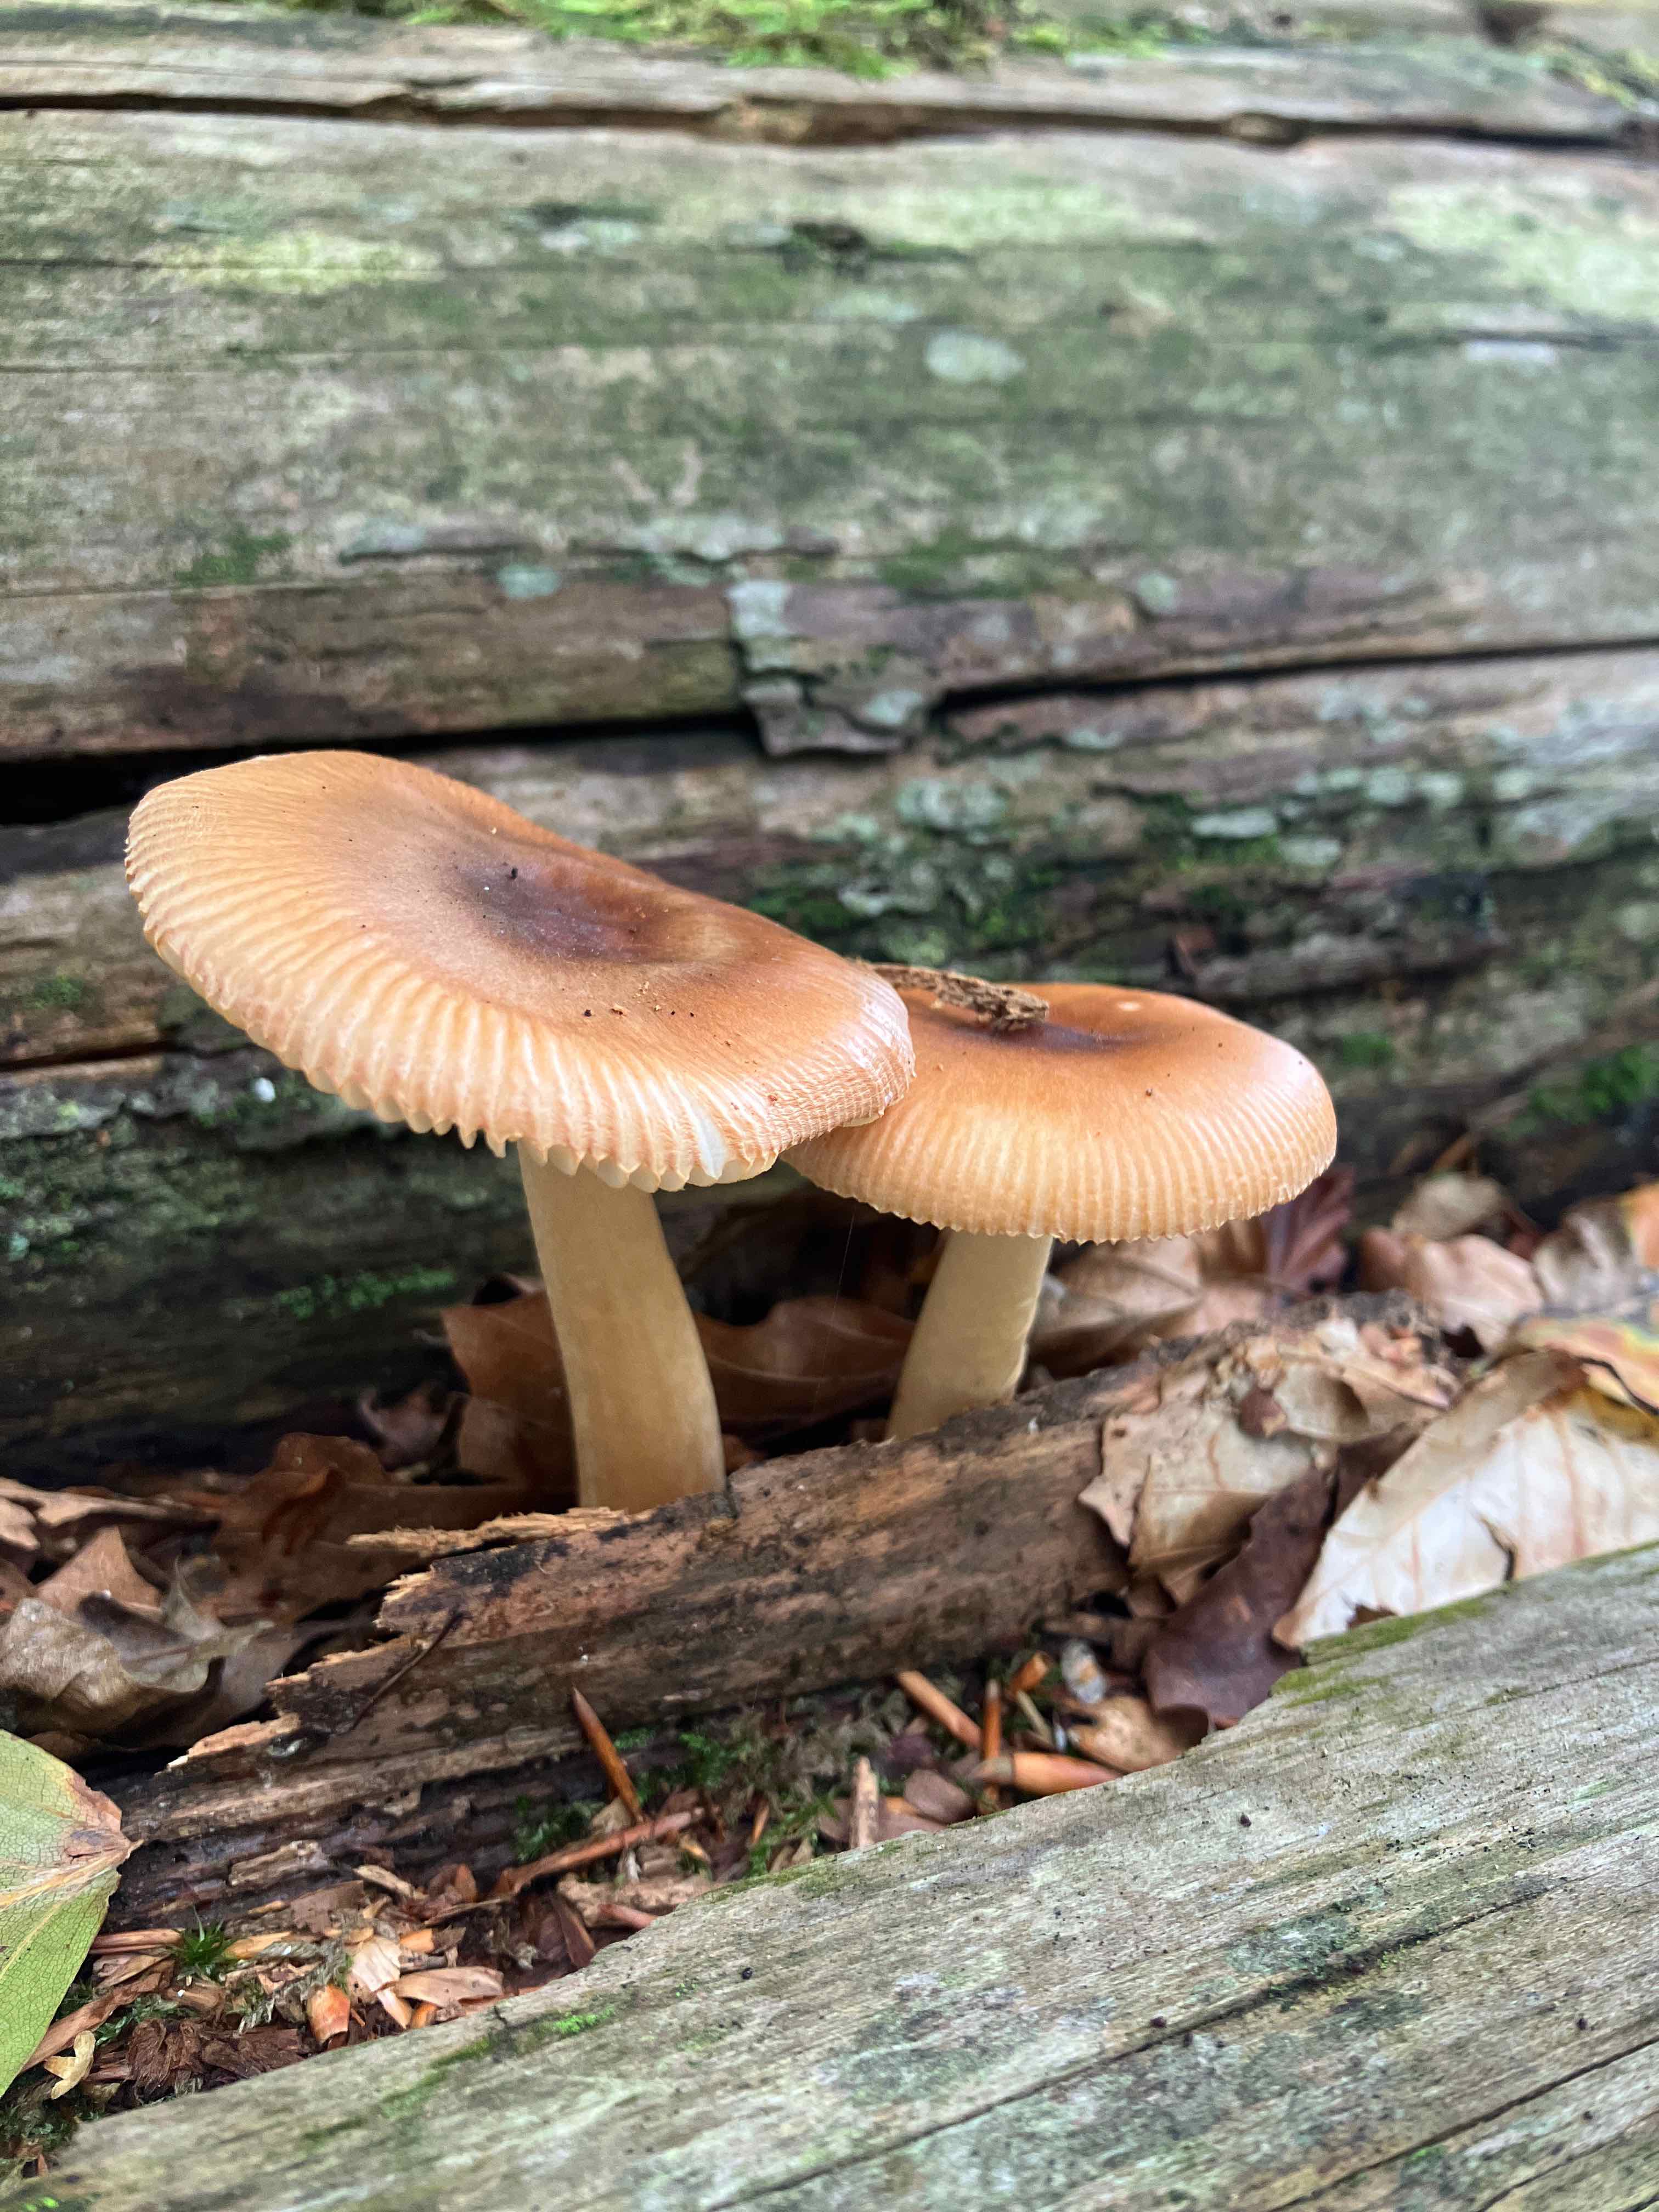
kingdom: Fungi
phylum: Basidiomycota
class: Agaricomycetes
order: Agaricales
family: Amanitaceae
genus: Amanita
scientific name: Amanita fulva
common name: brun kam-fluesvamp
